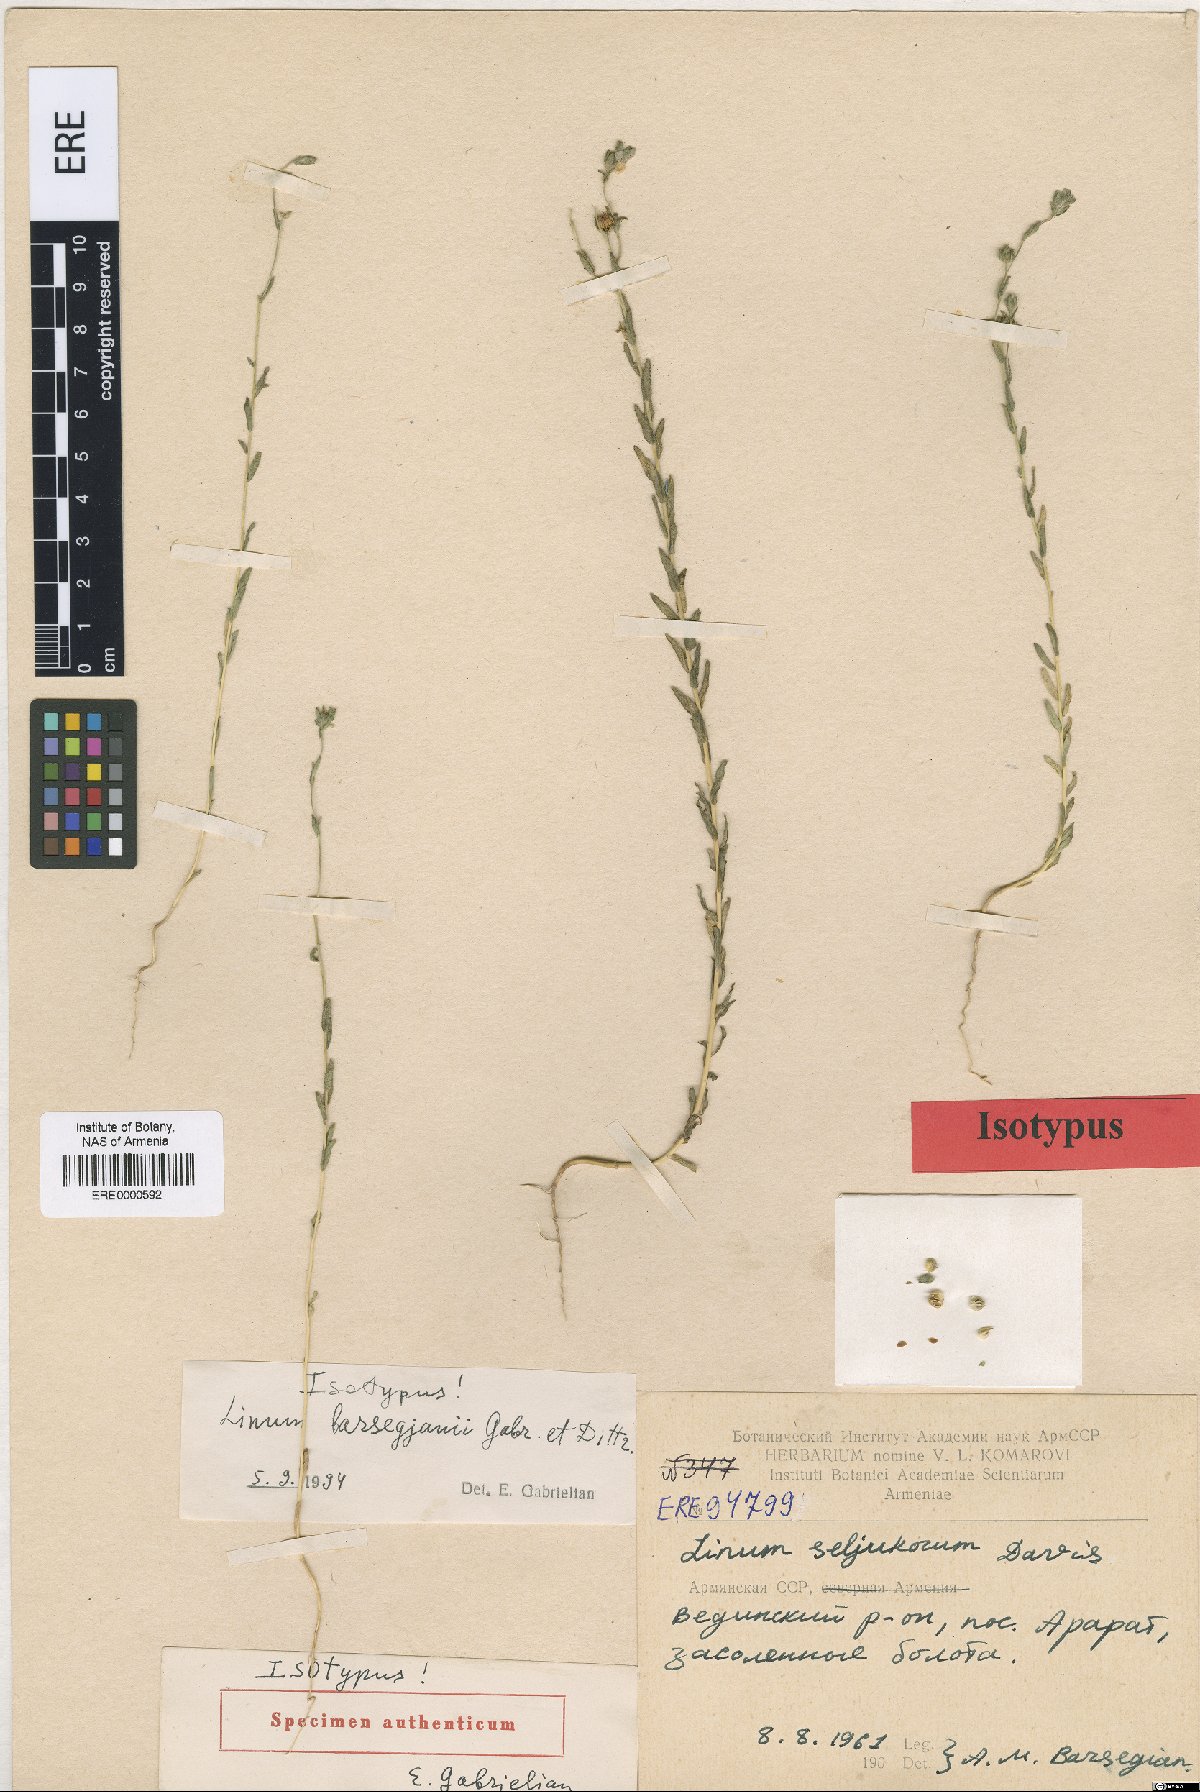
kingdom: Plantae
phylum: Tracheophyta
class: Magnoliopsida
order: Malpighiales
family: Linaceae
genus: Linum
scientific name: Linum seljukorum
